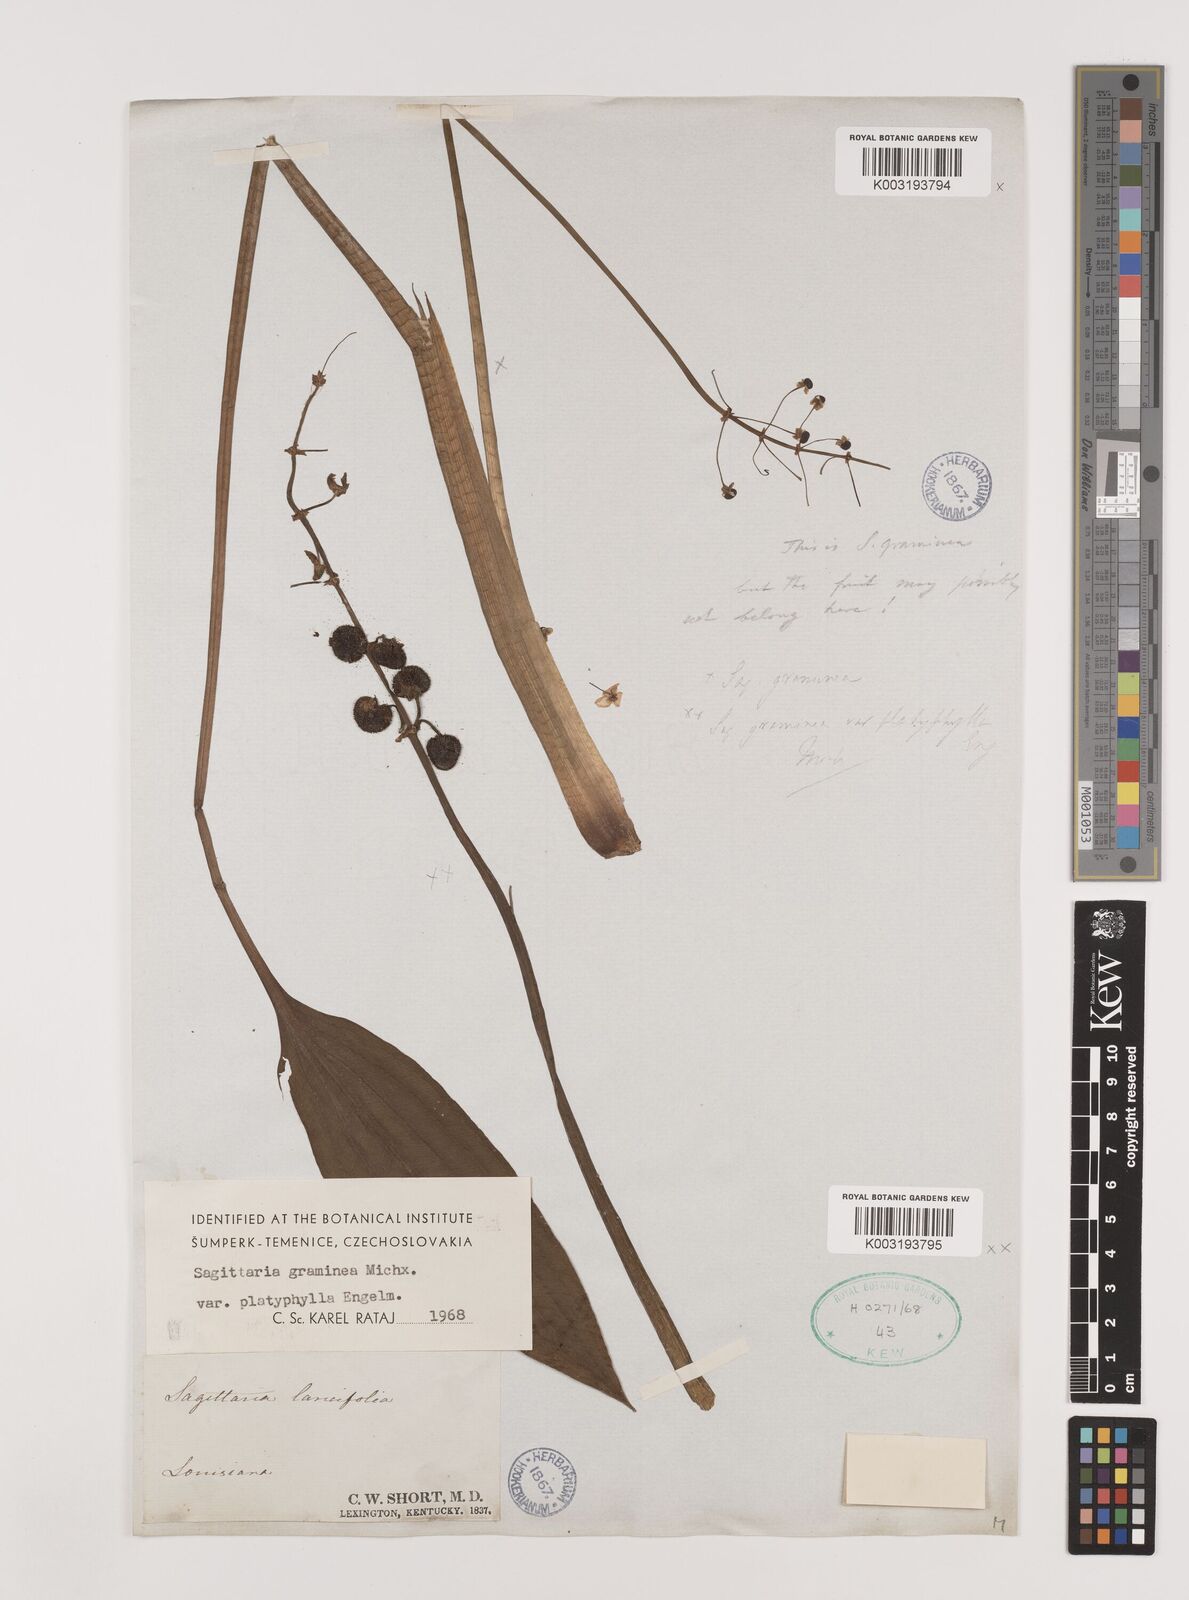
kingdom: Plantae
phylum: Tracheophyta
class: Liliopsida
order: Alismatales
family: Alismataceae
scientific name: Alismataceae
